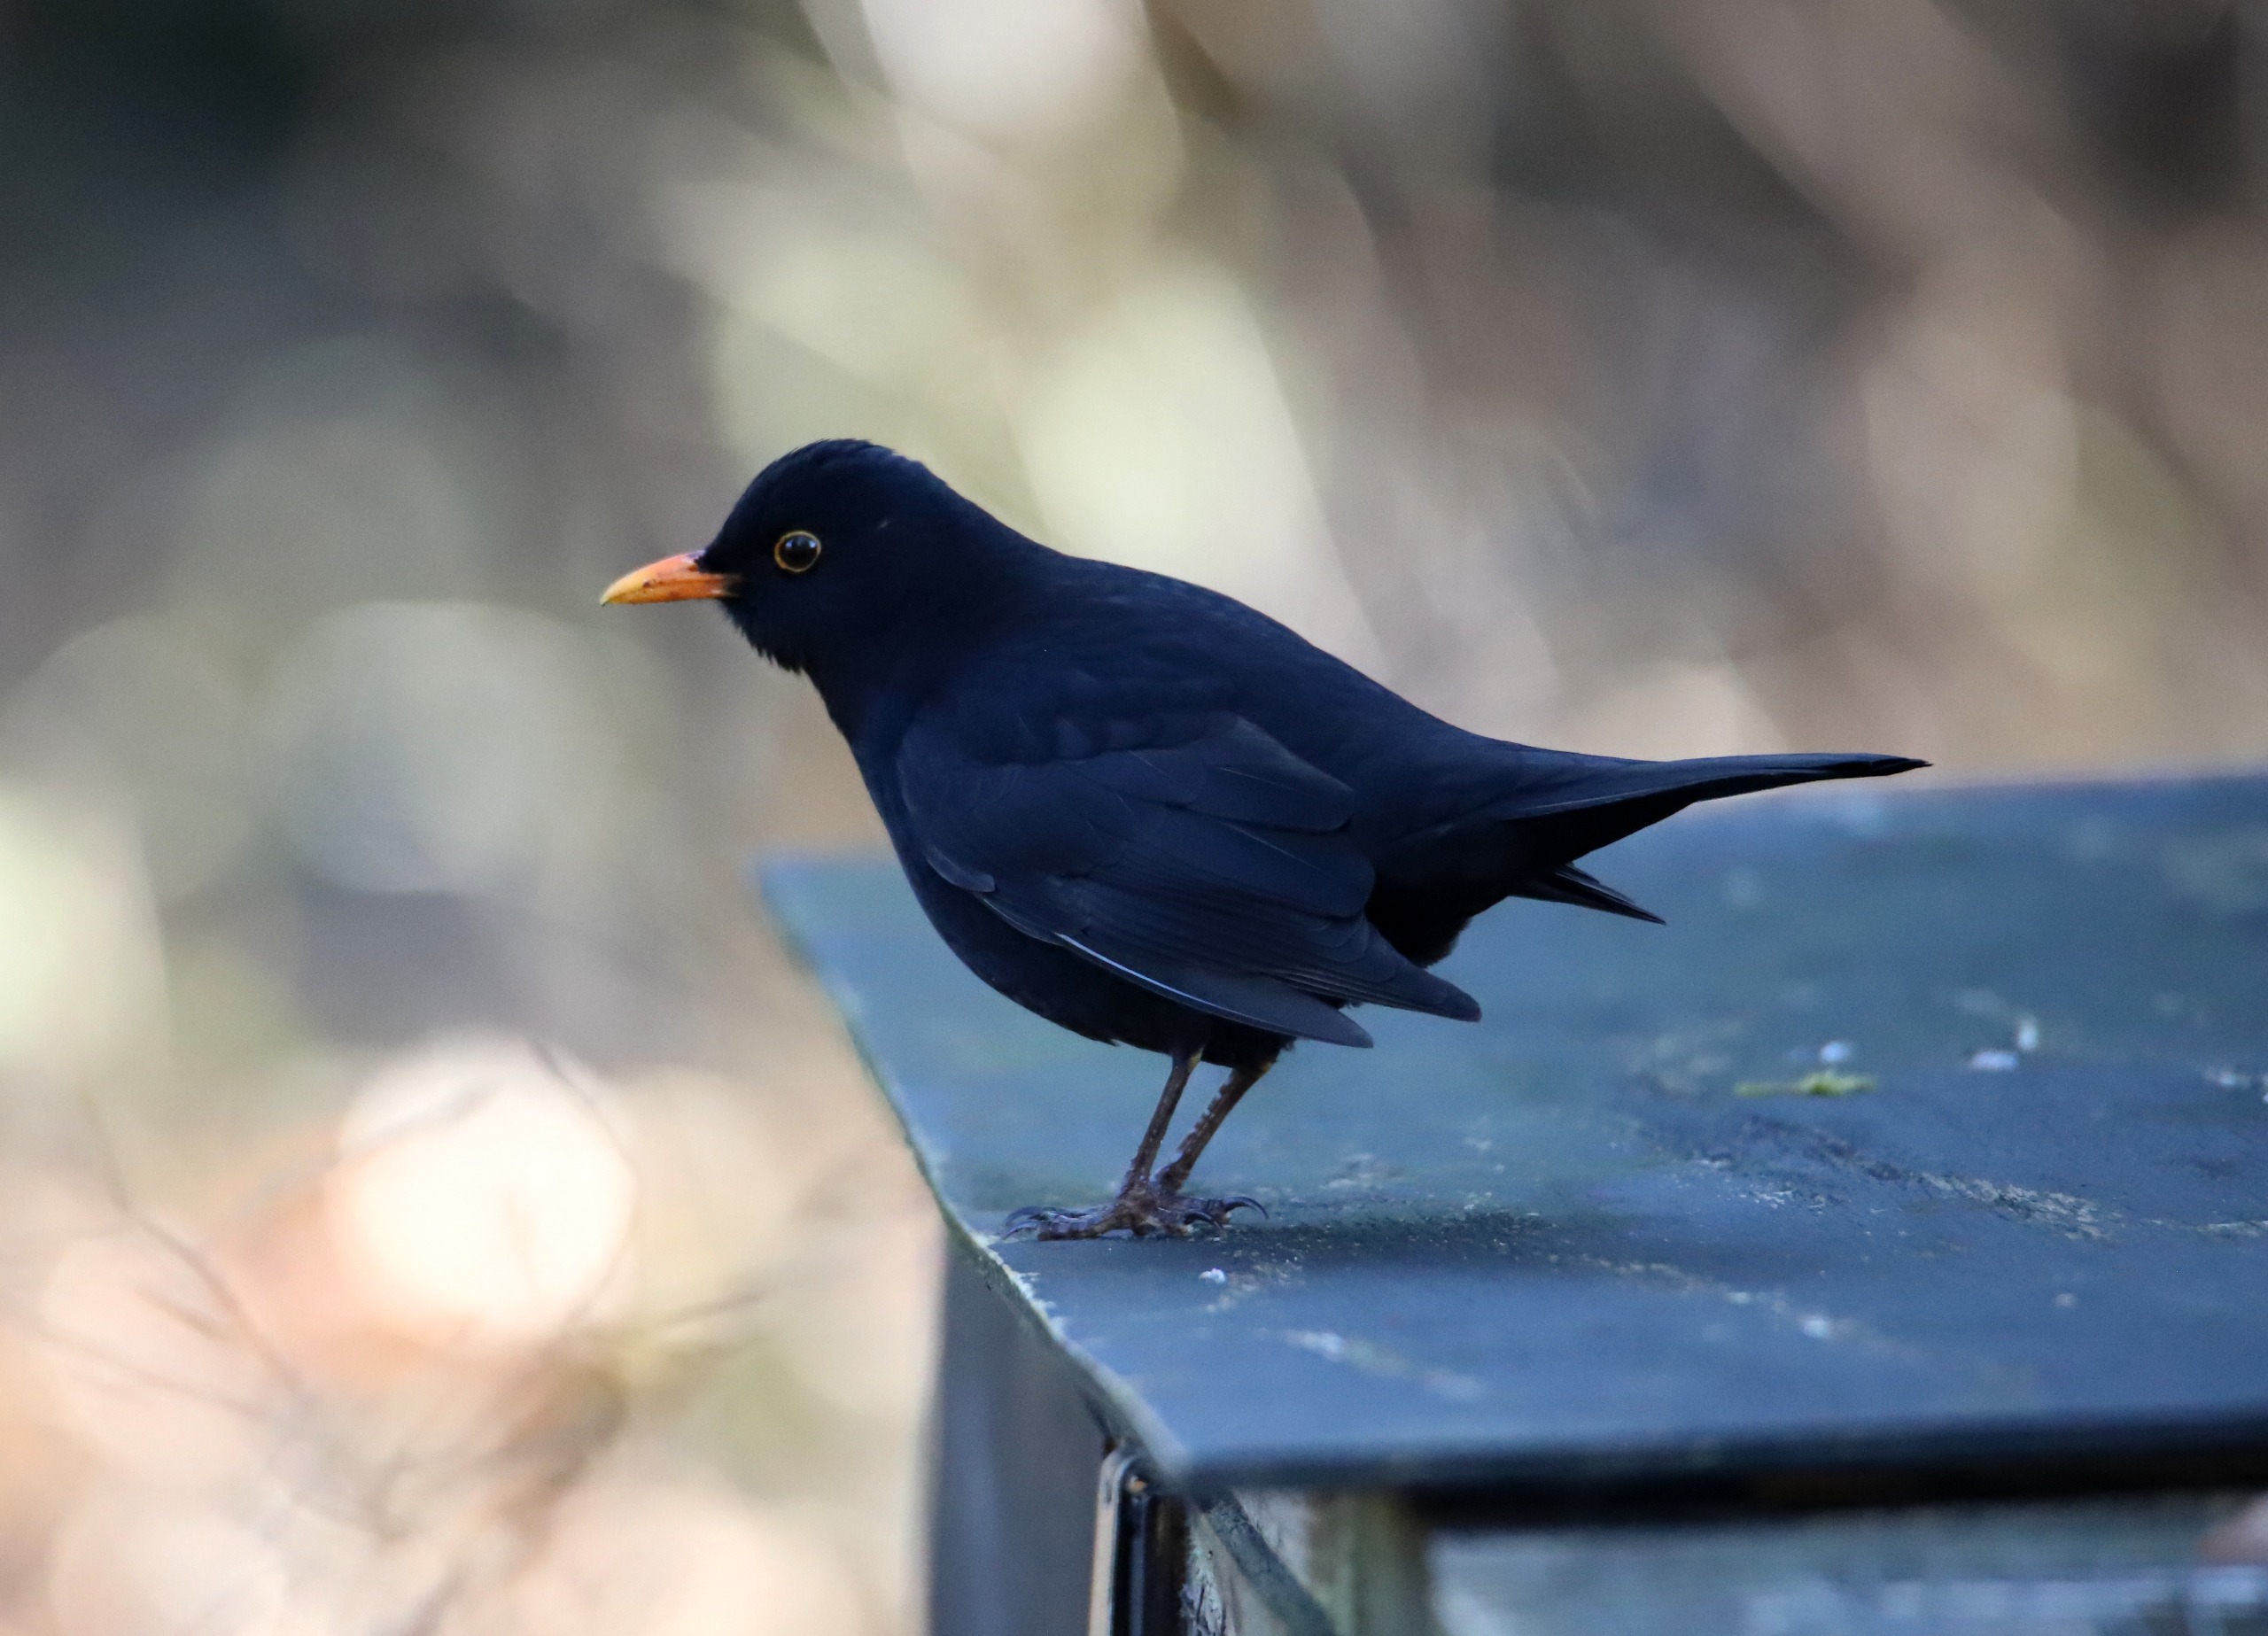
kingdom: Animalia
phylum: Chordata
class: Aves
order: Passeriformes
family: Turdidae
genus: Turdus
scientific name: Turdus merula
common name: Solsort
